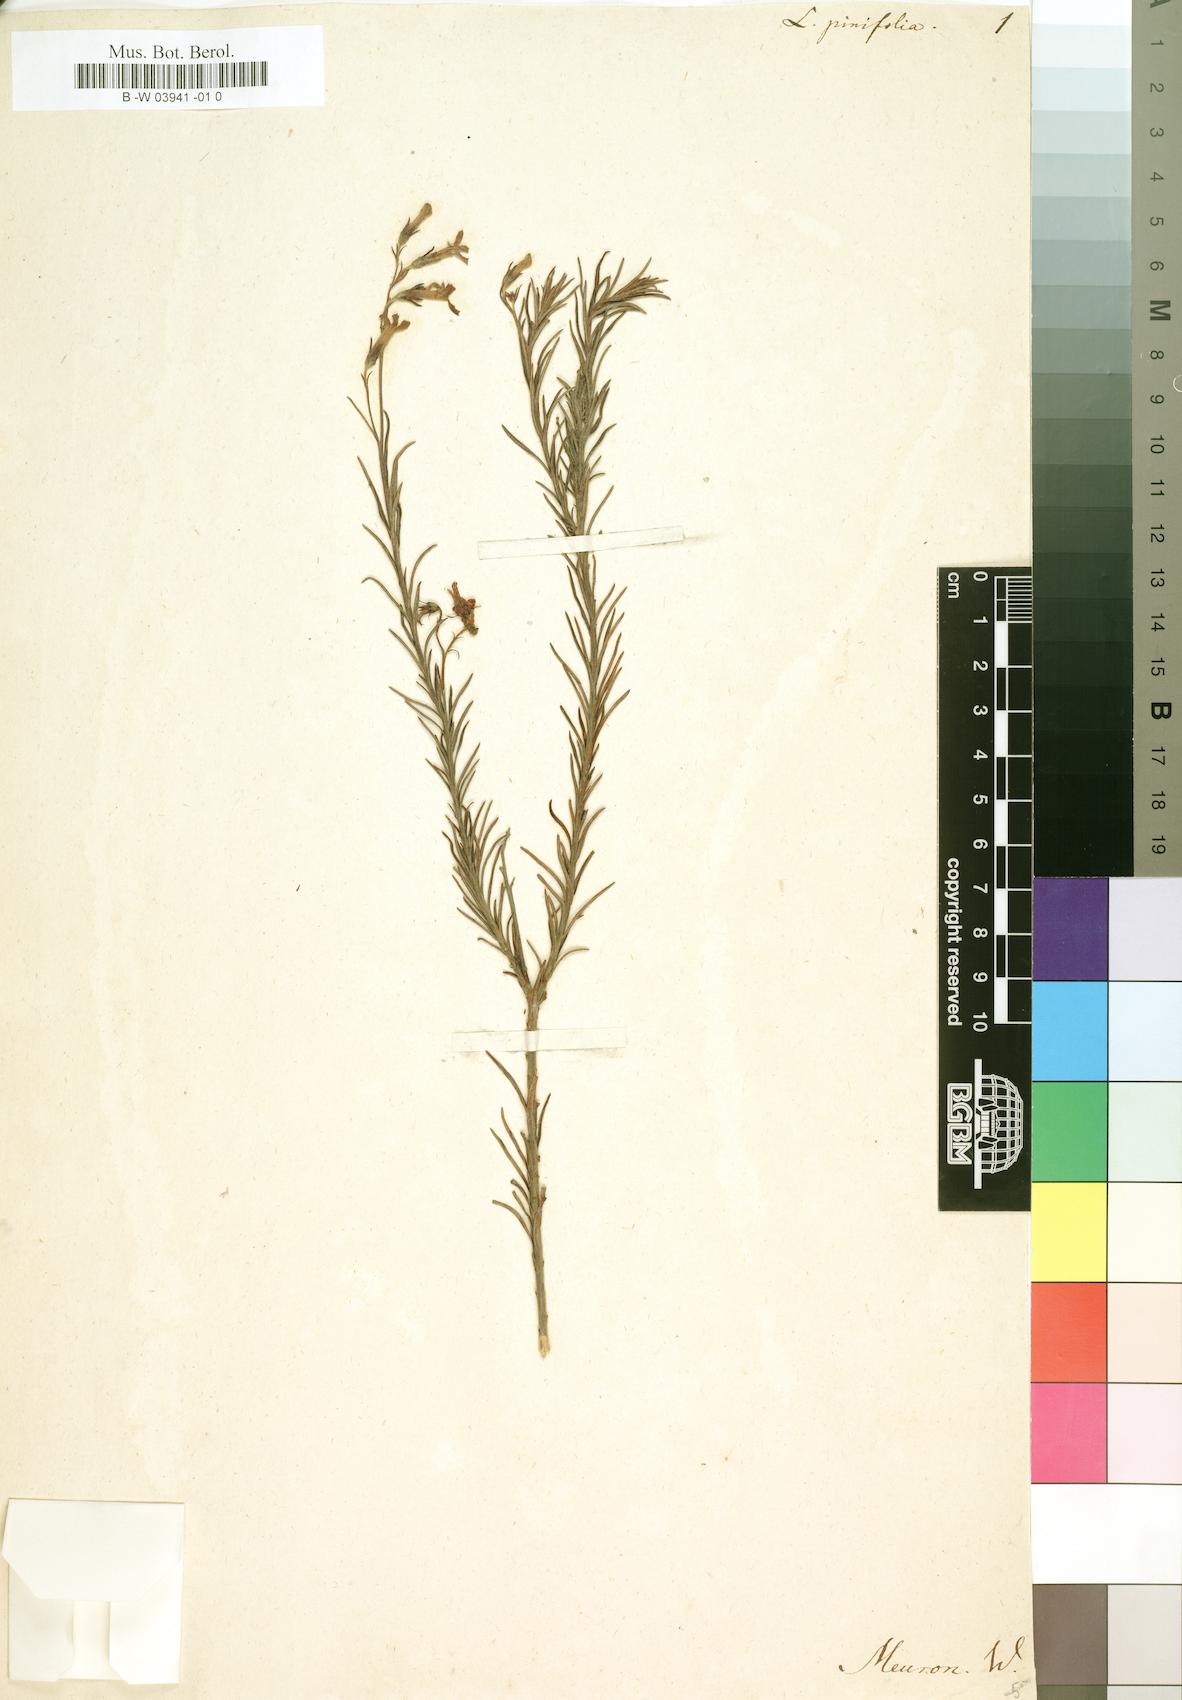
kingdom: Plantae
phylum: Tracheophyta
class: Magnoliopsida
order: Asterales
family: Campanulaceae
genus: Lobelia
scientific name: Lobelia pinifolia
